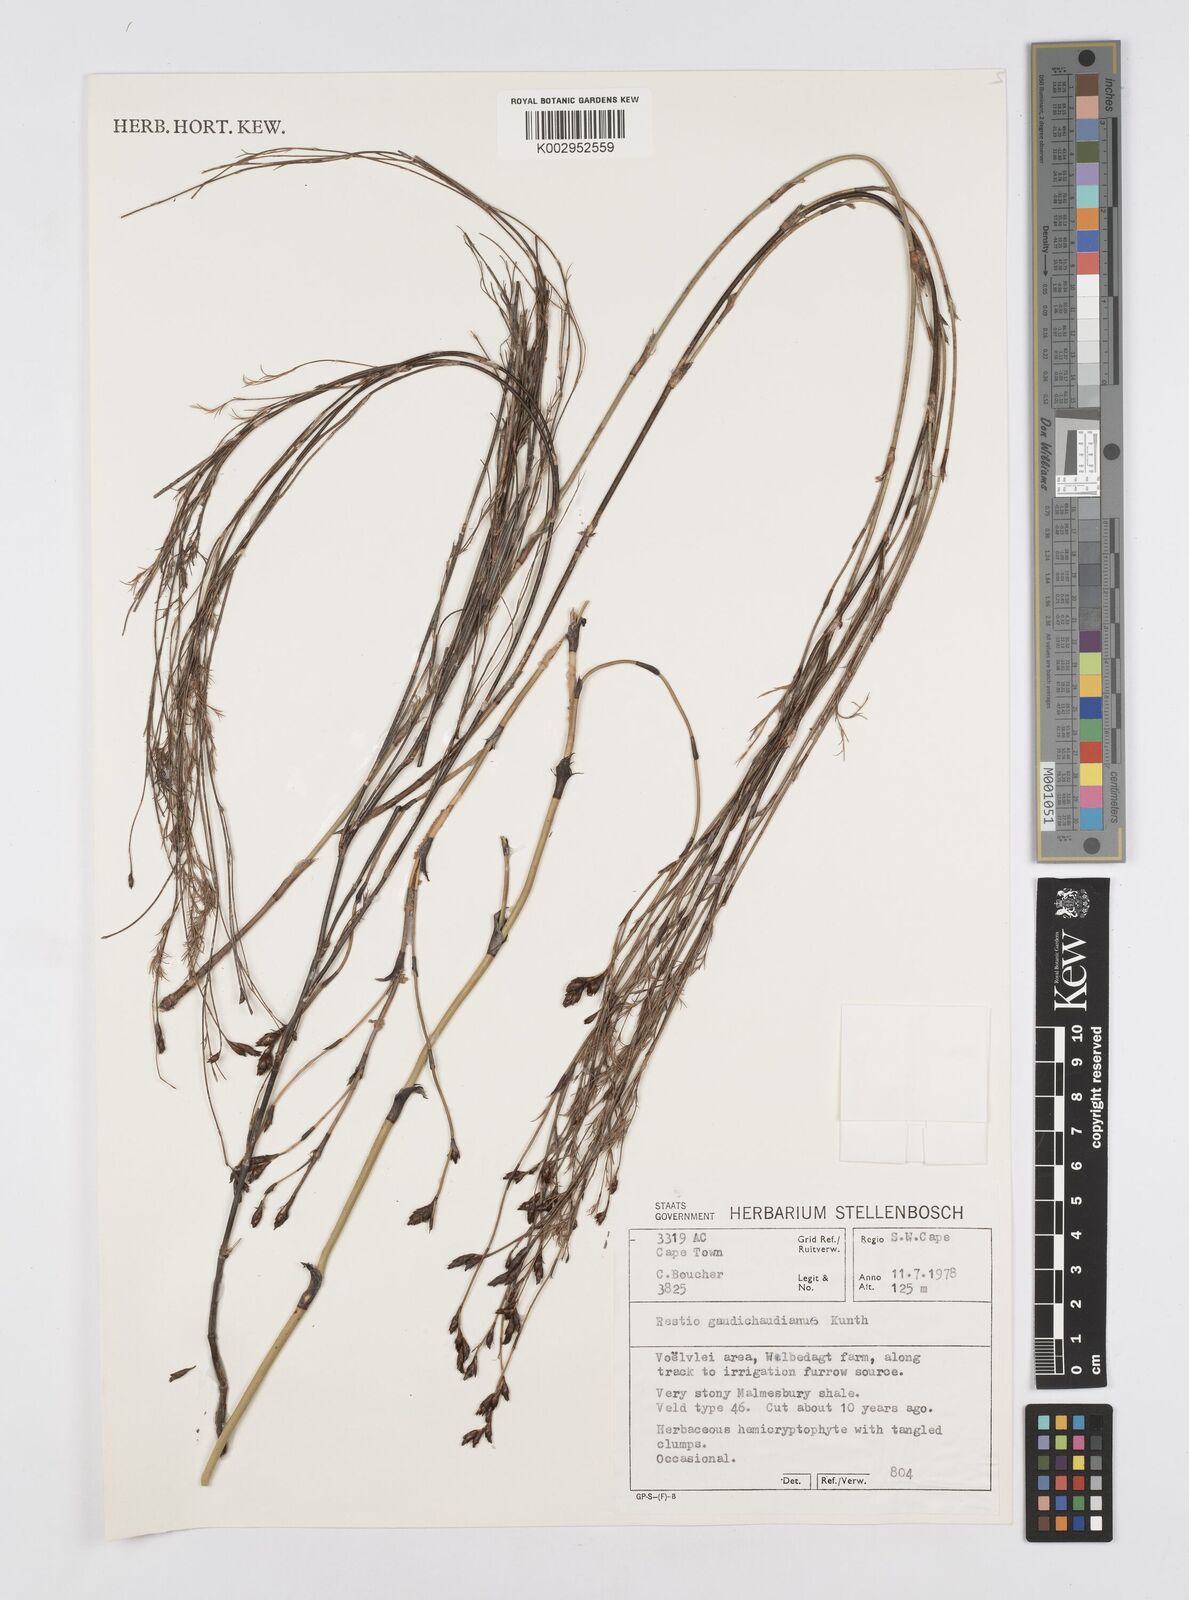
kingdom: Plantae
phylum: Tracheophyta
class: Liliopsida
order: Poales
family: Restionaceae
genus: Restio
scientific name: Restio gaudichaudianus
